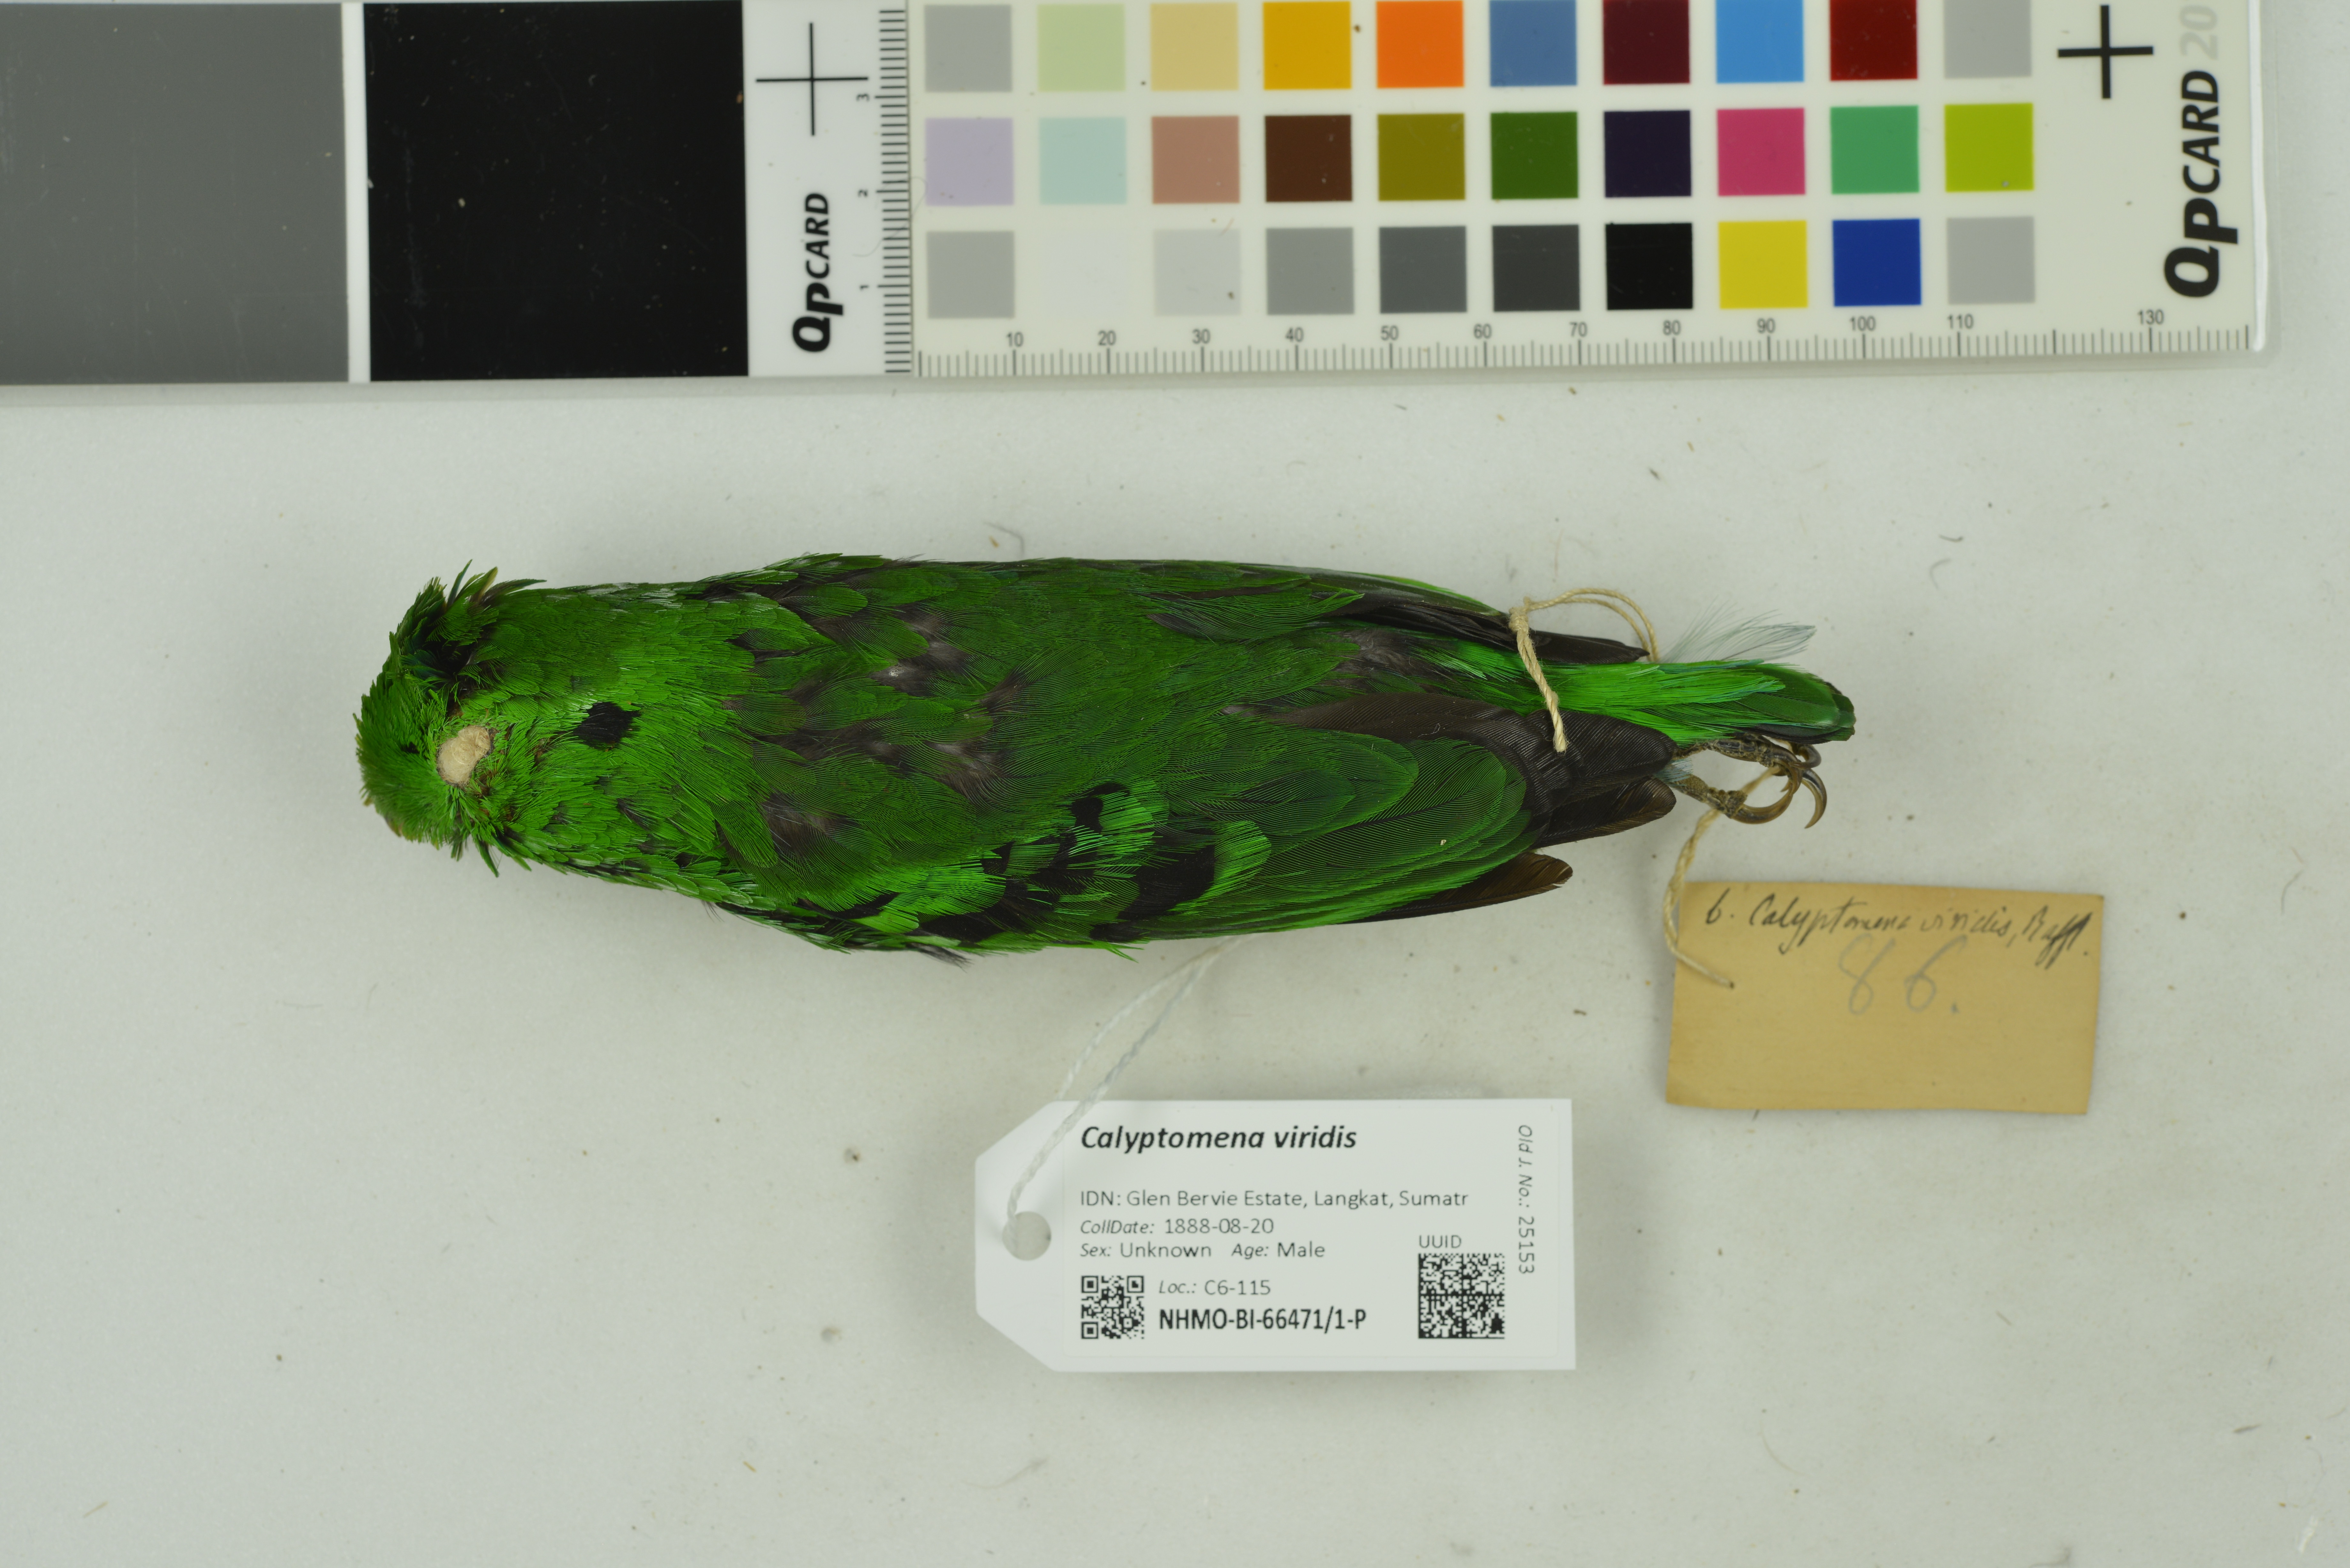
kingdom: Animalia
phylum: Chordata
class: Aves
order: Passeriformes
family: Eurylaimidae
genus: Calyptomena
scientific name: Calyptomena viridis
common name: Green broadbill
